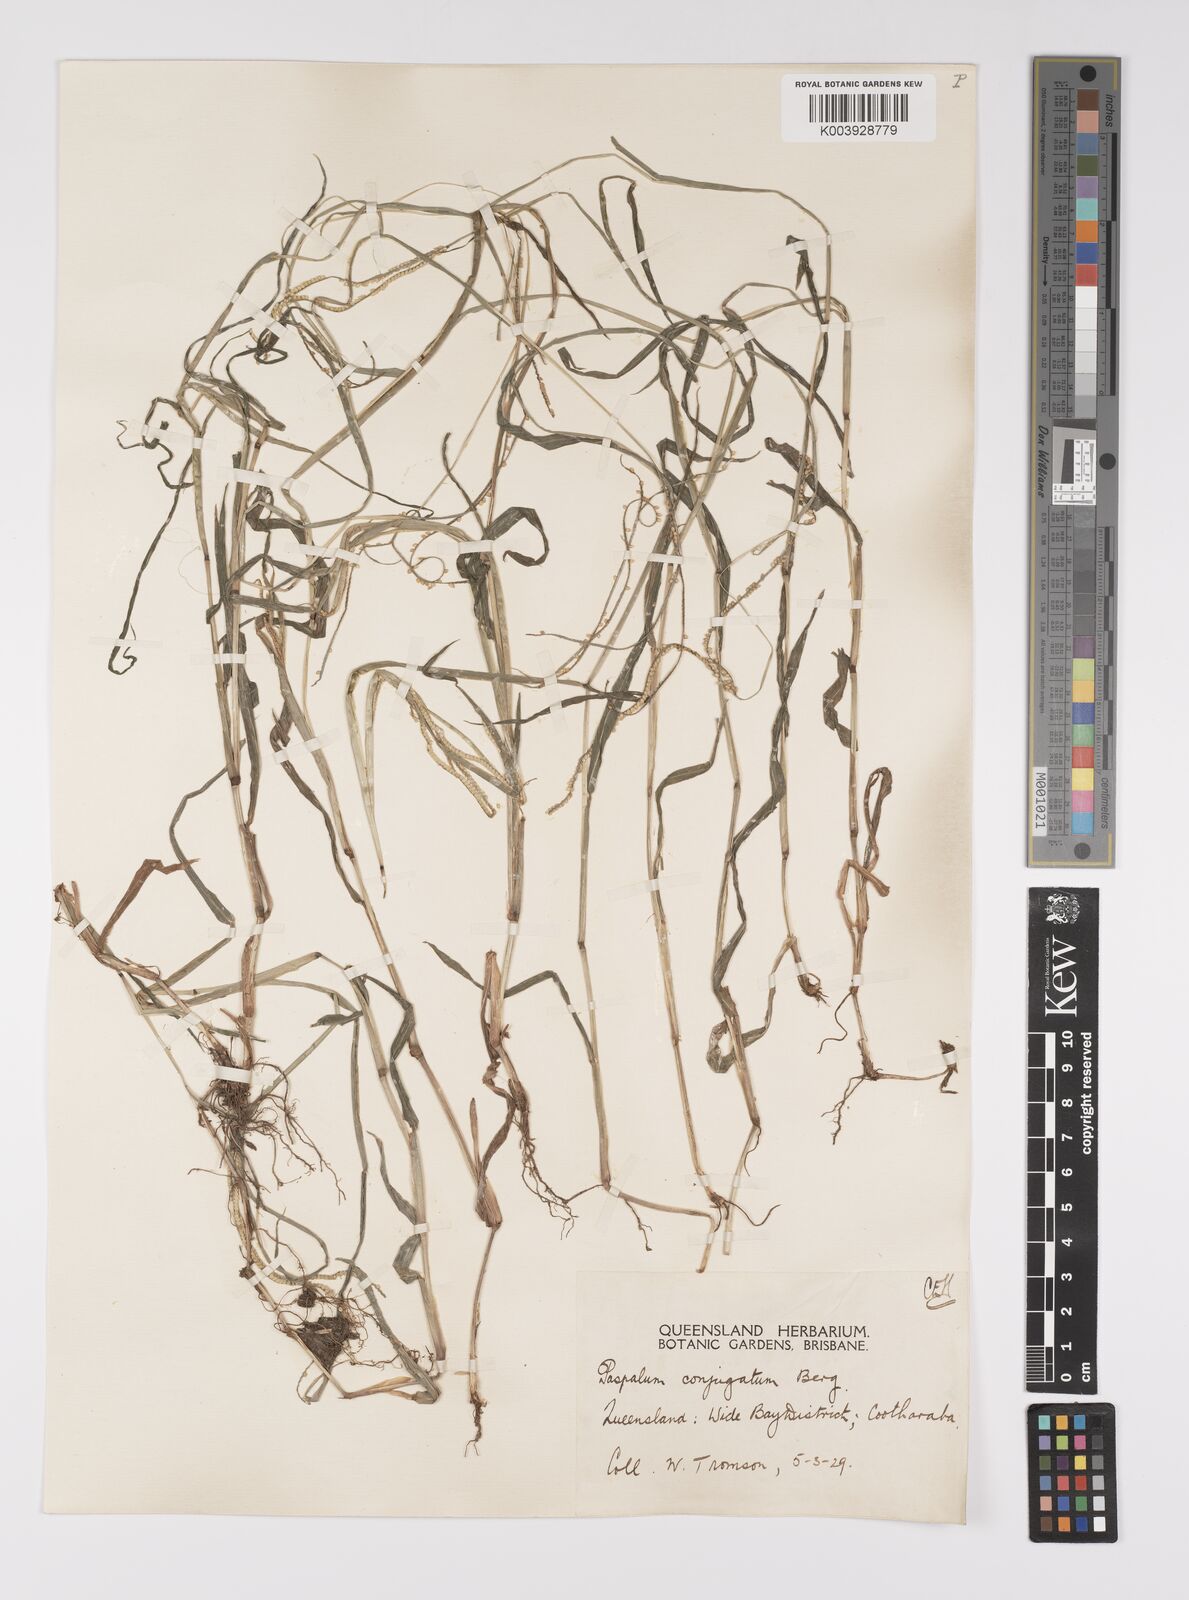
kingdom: Plantae
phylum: Tracheophyta
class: Liliopsida
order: Poales
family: Poaceae
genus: Paspalum
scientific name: Paspalum conjugatum
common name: Hilograss
